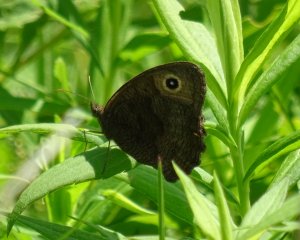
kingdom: Animalia
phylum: Arthropoda
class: Insecta
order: Lepidoptera
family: Nymphalidae
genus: Cercyonis
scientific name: Cercyonis pegala
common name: Common Wood-Nymph
